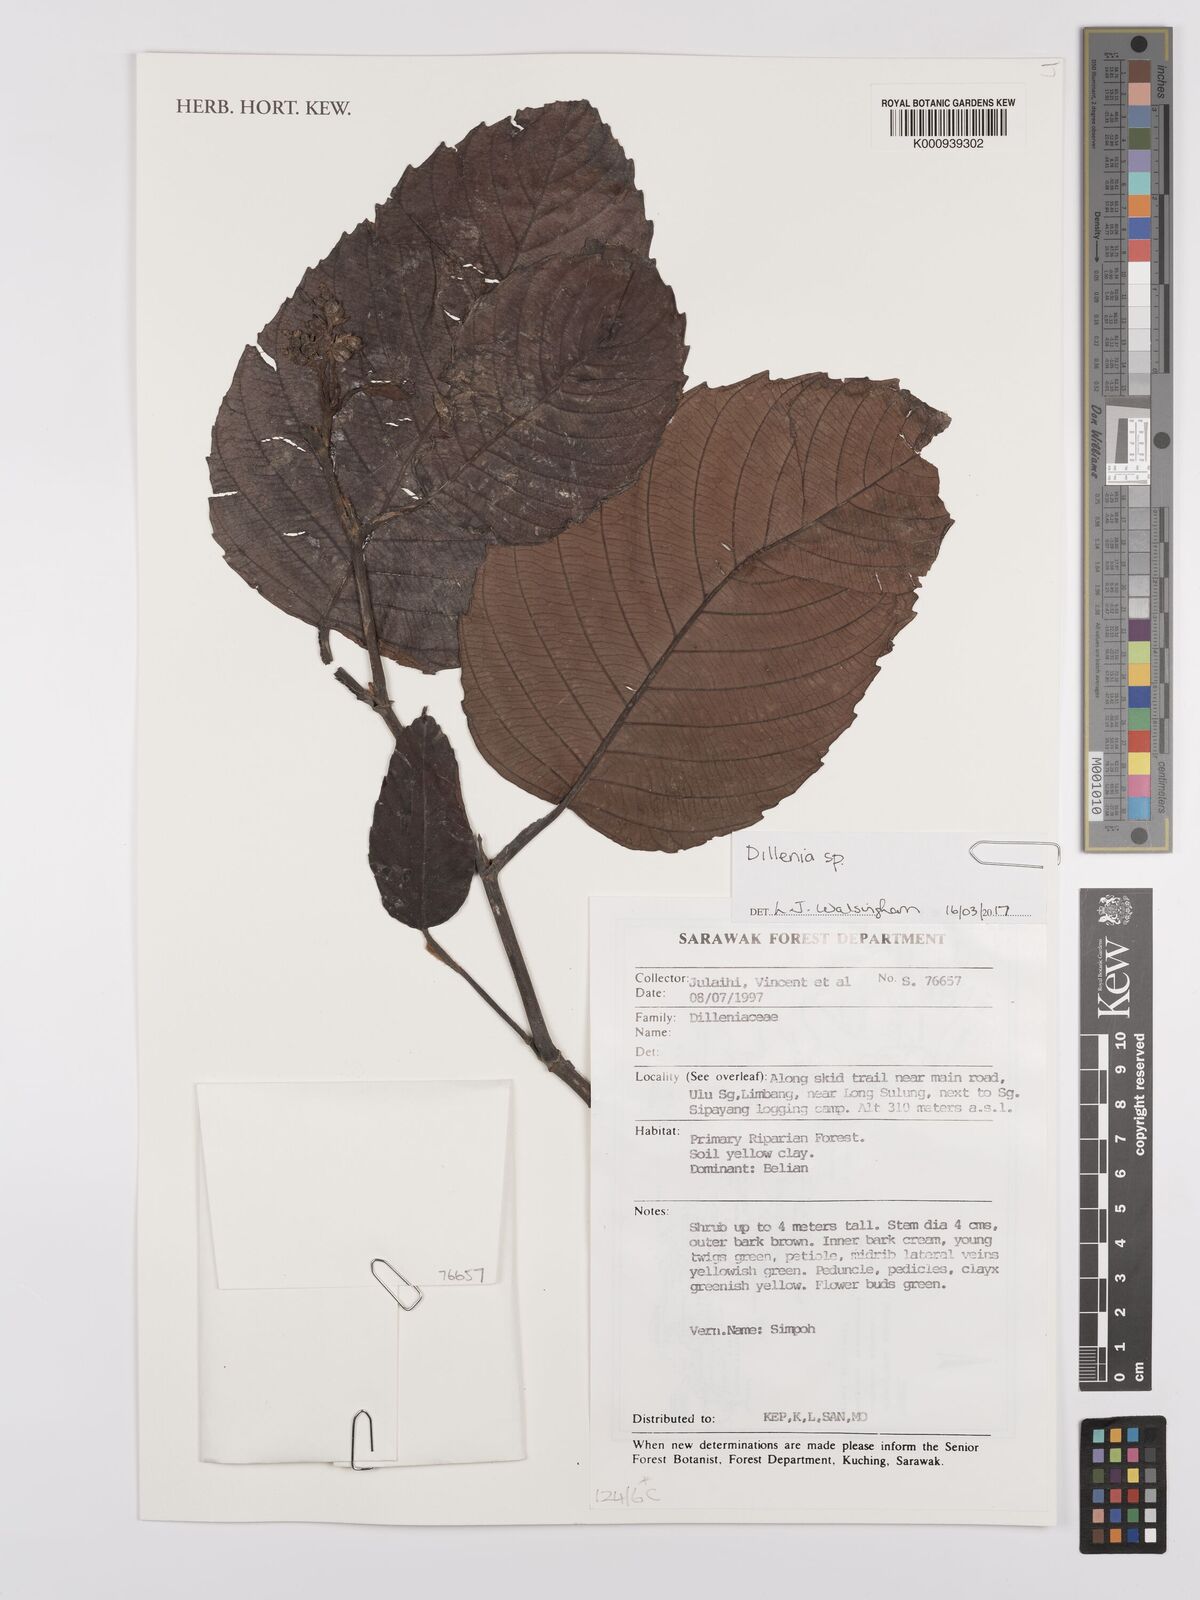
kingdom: Plantae
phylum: Tracheophyta
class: Magnoliopsida
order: Dilleniales
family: Dilleniaceae
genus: Dillenia
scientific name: Dillenia
